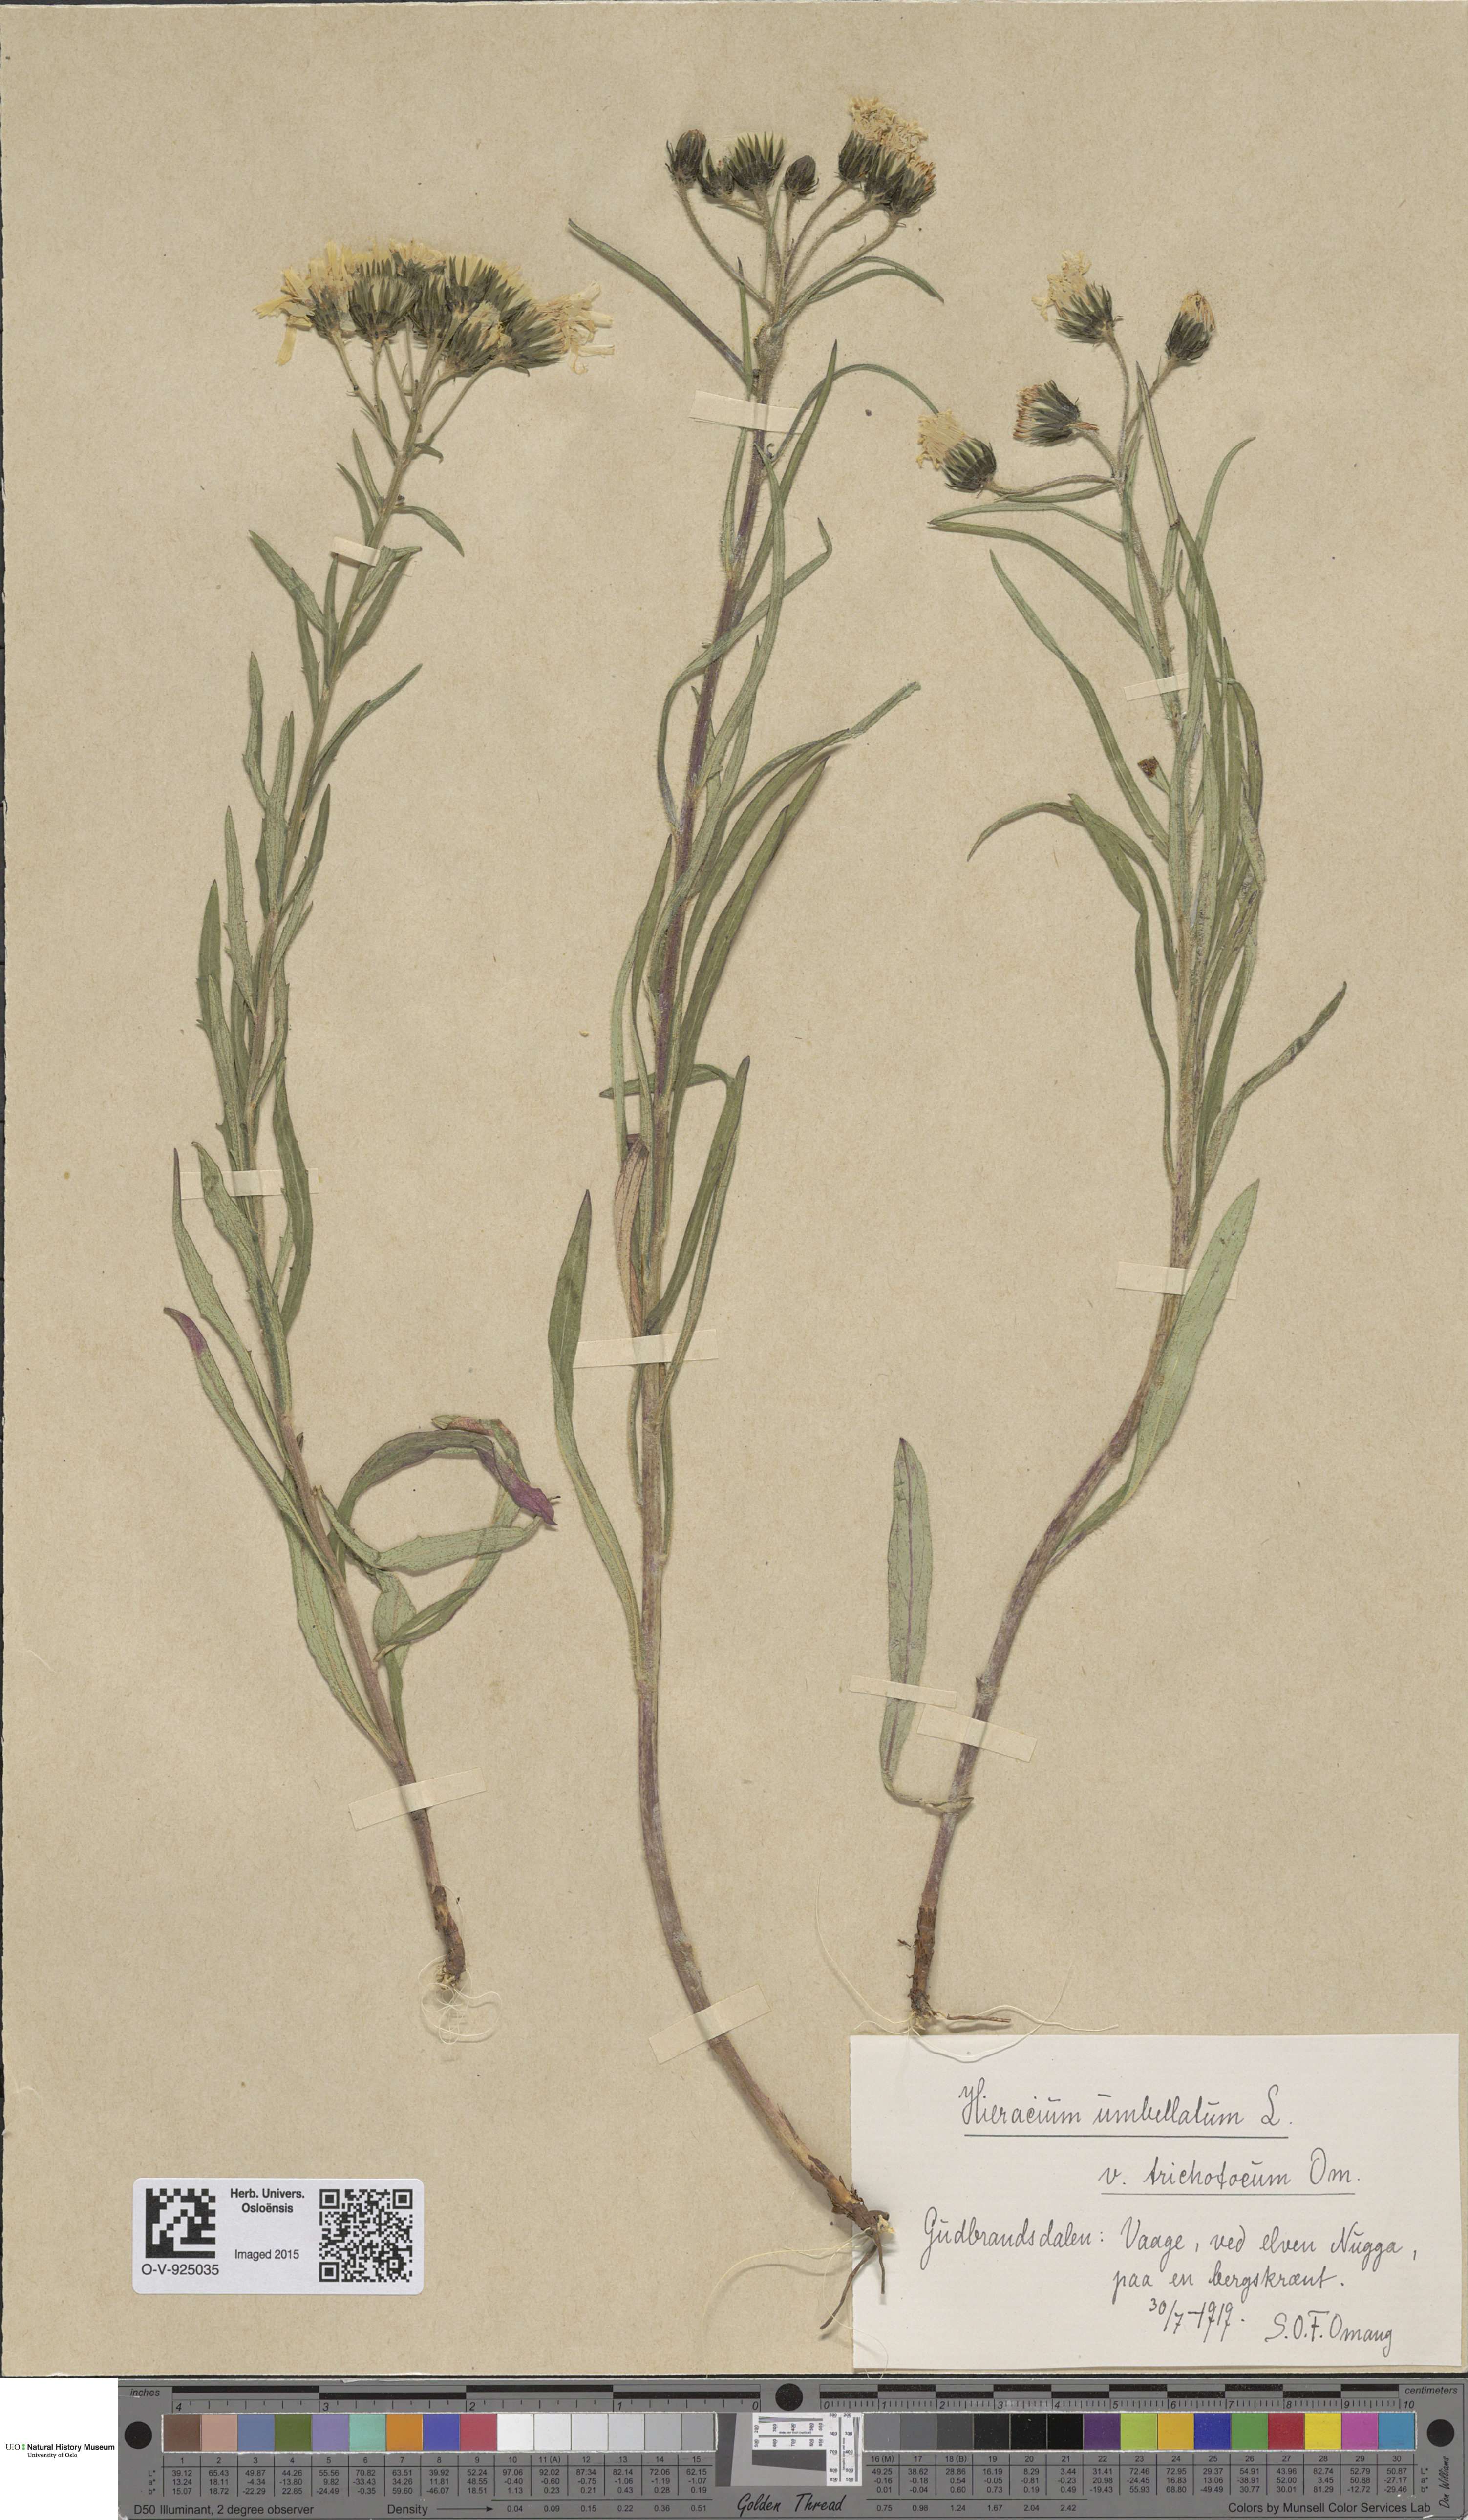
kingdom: Plantae
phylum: Tracheophyta
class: Magnoliopsida
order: Asterales
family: Asteraceae
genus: Hieracium
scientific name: Hieracium umbellatum
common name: Northern hawkweed
